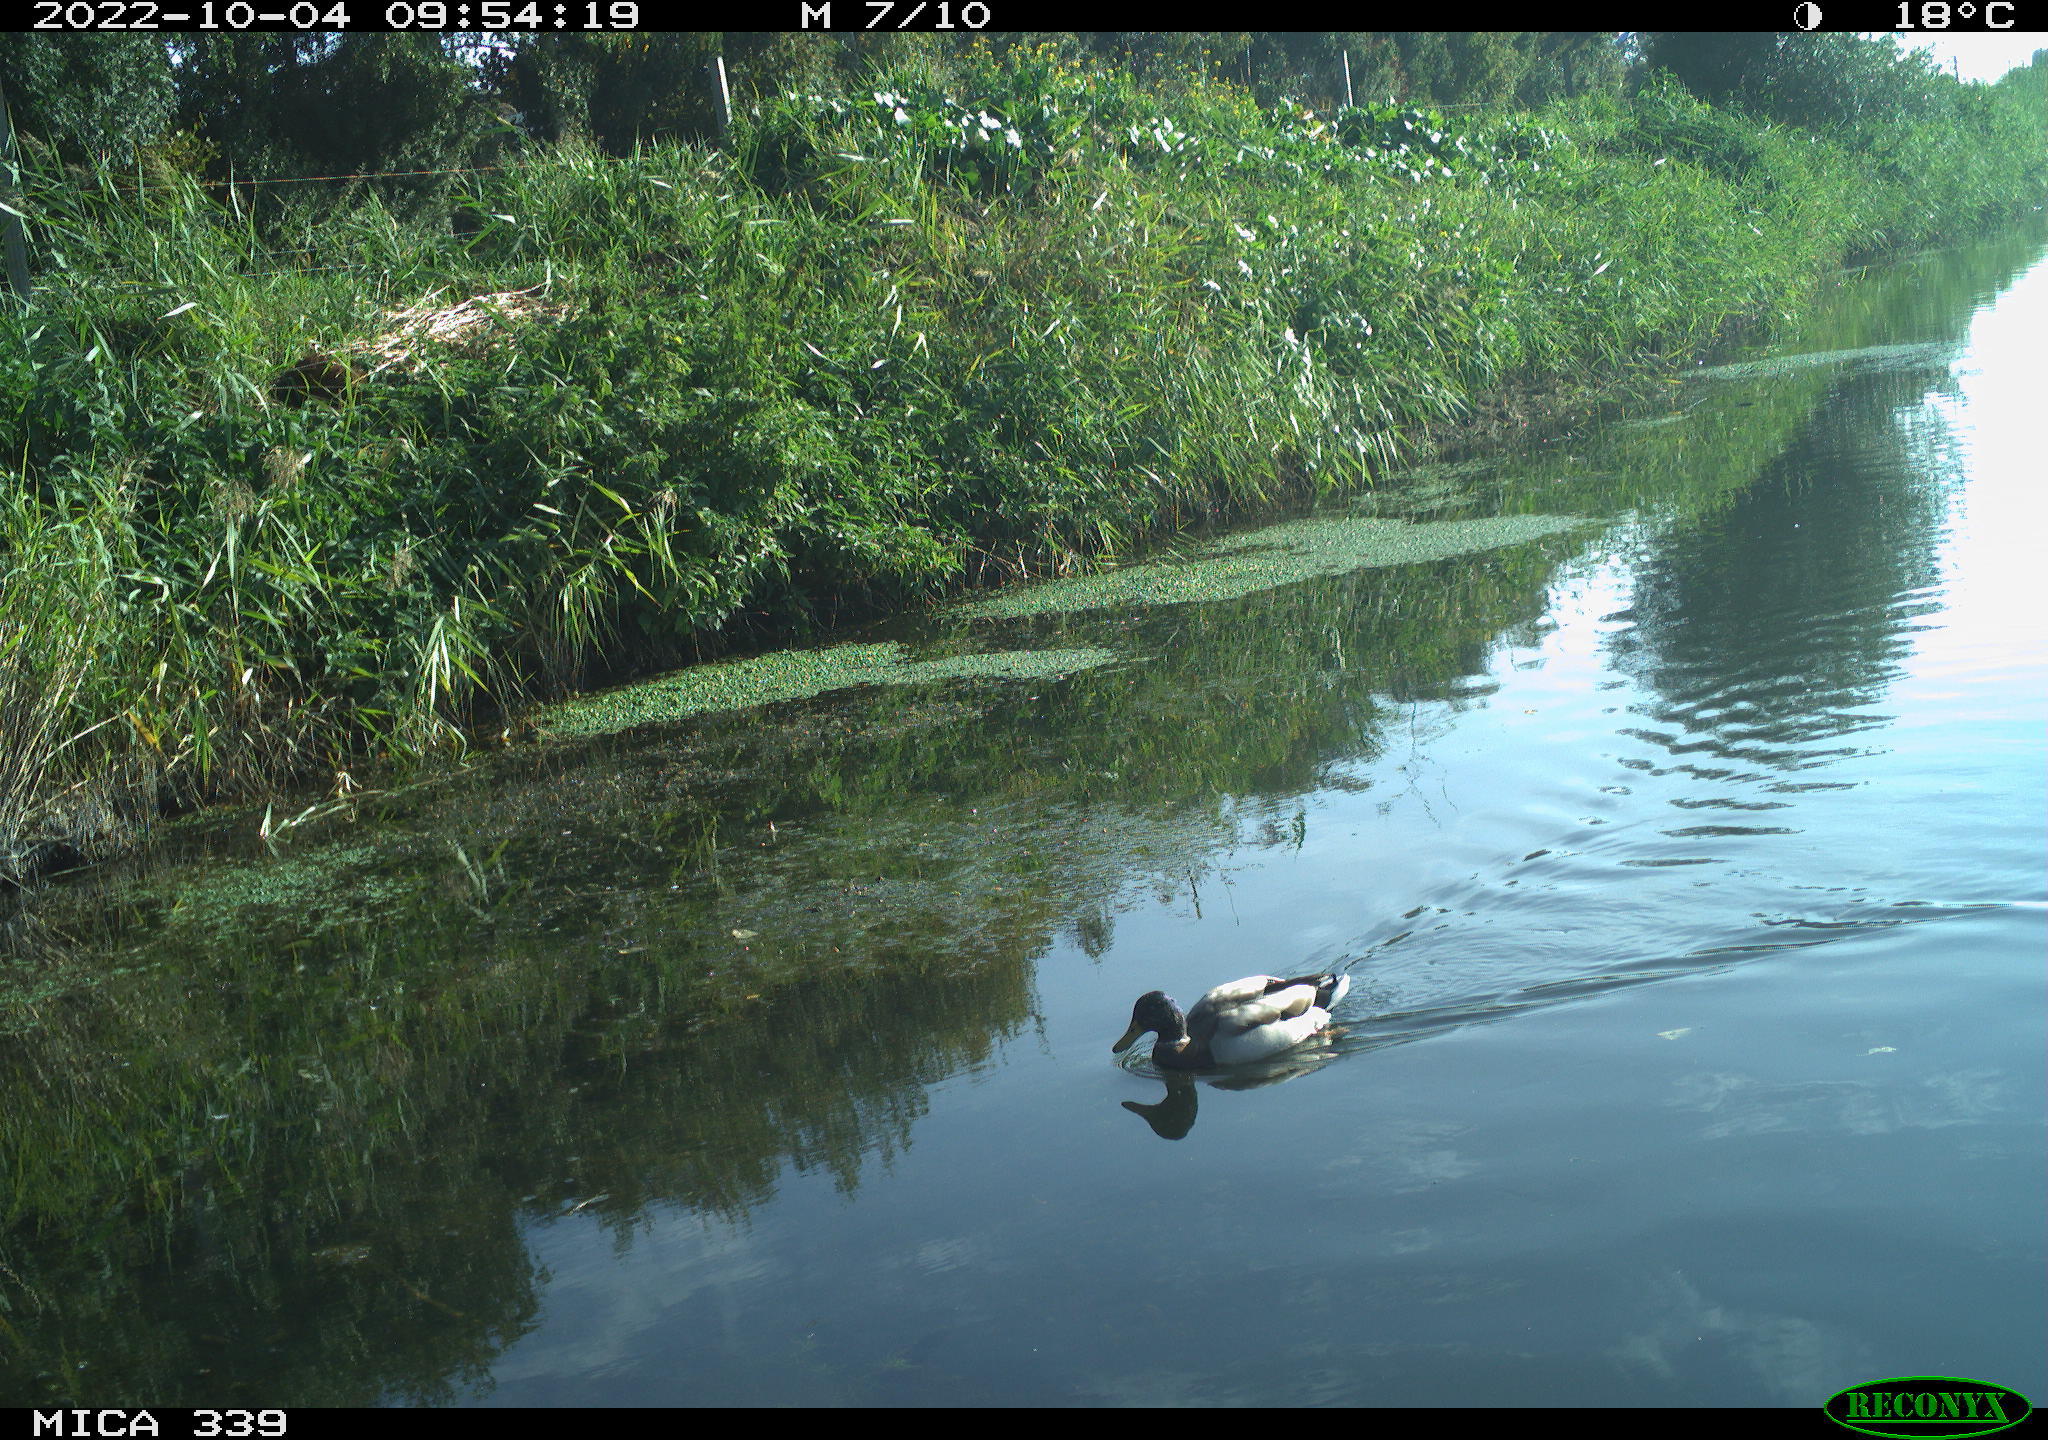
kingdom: Animalia
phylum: Chordata
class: Aves
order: Anseriformes
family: Anatidae
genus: Anas
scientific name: Anas platyrhynchos
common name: Mallard
